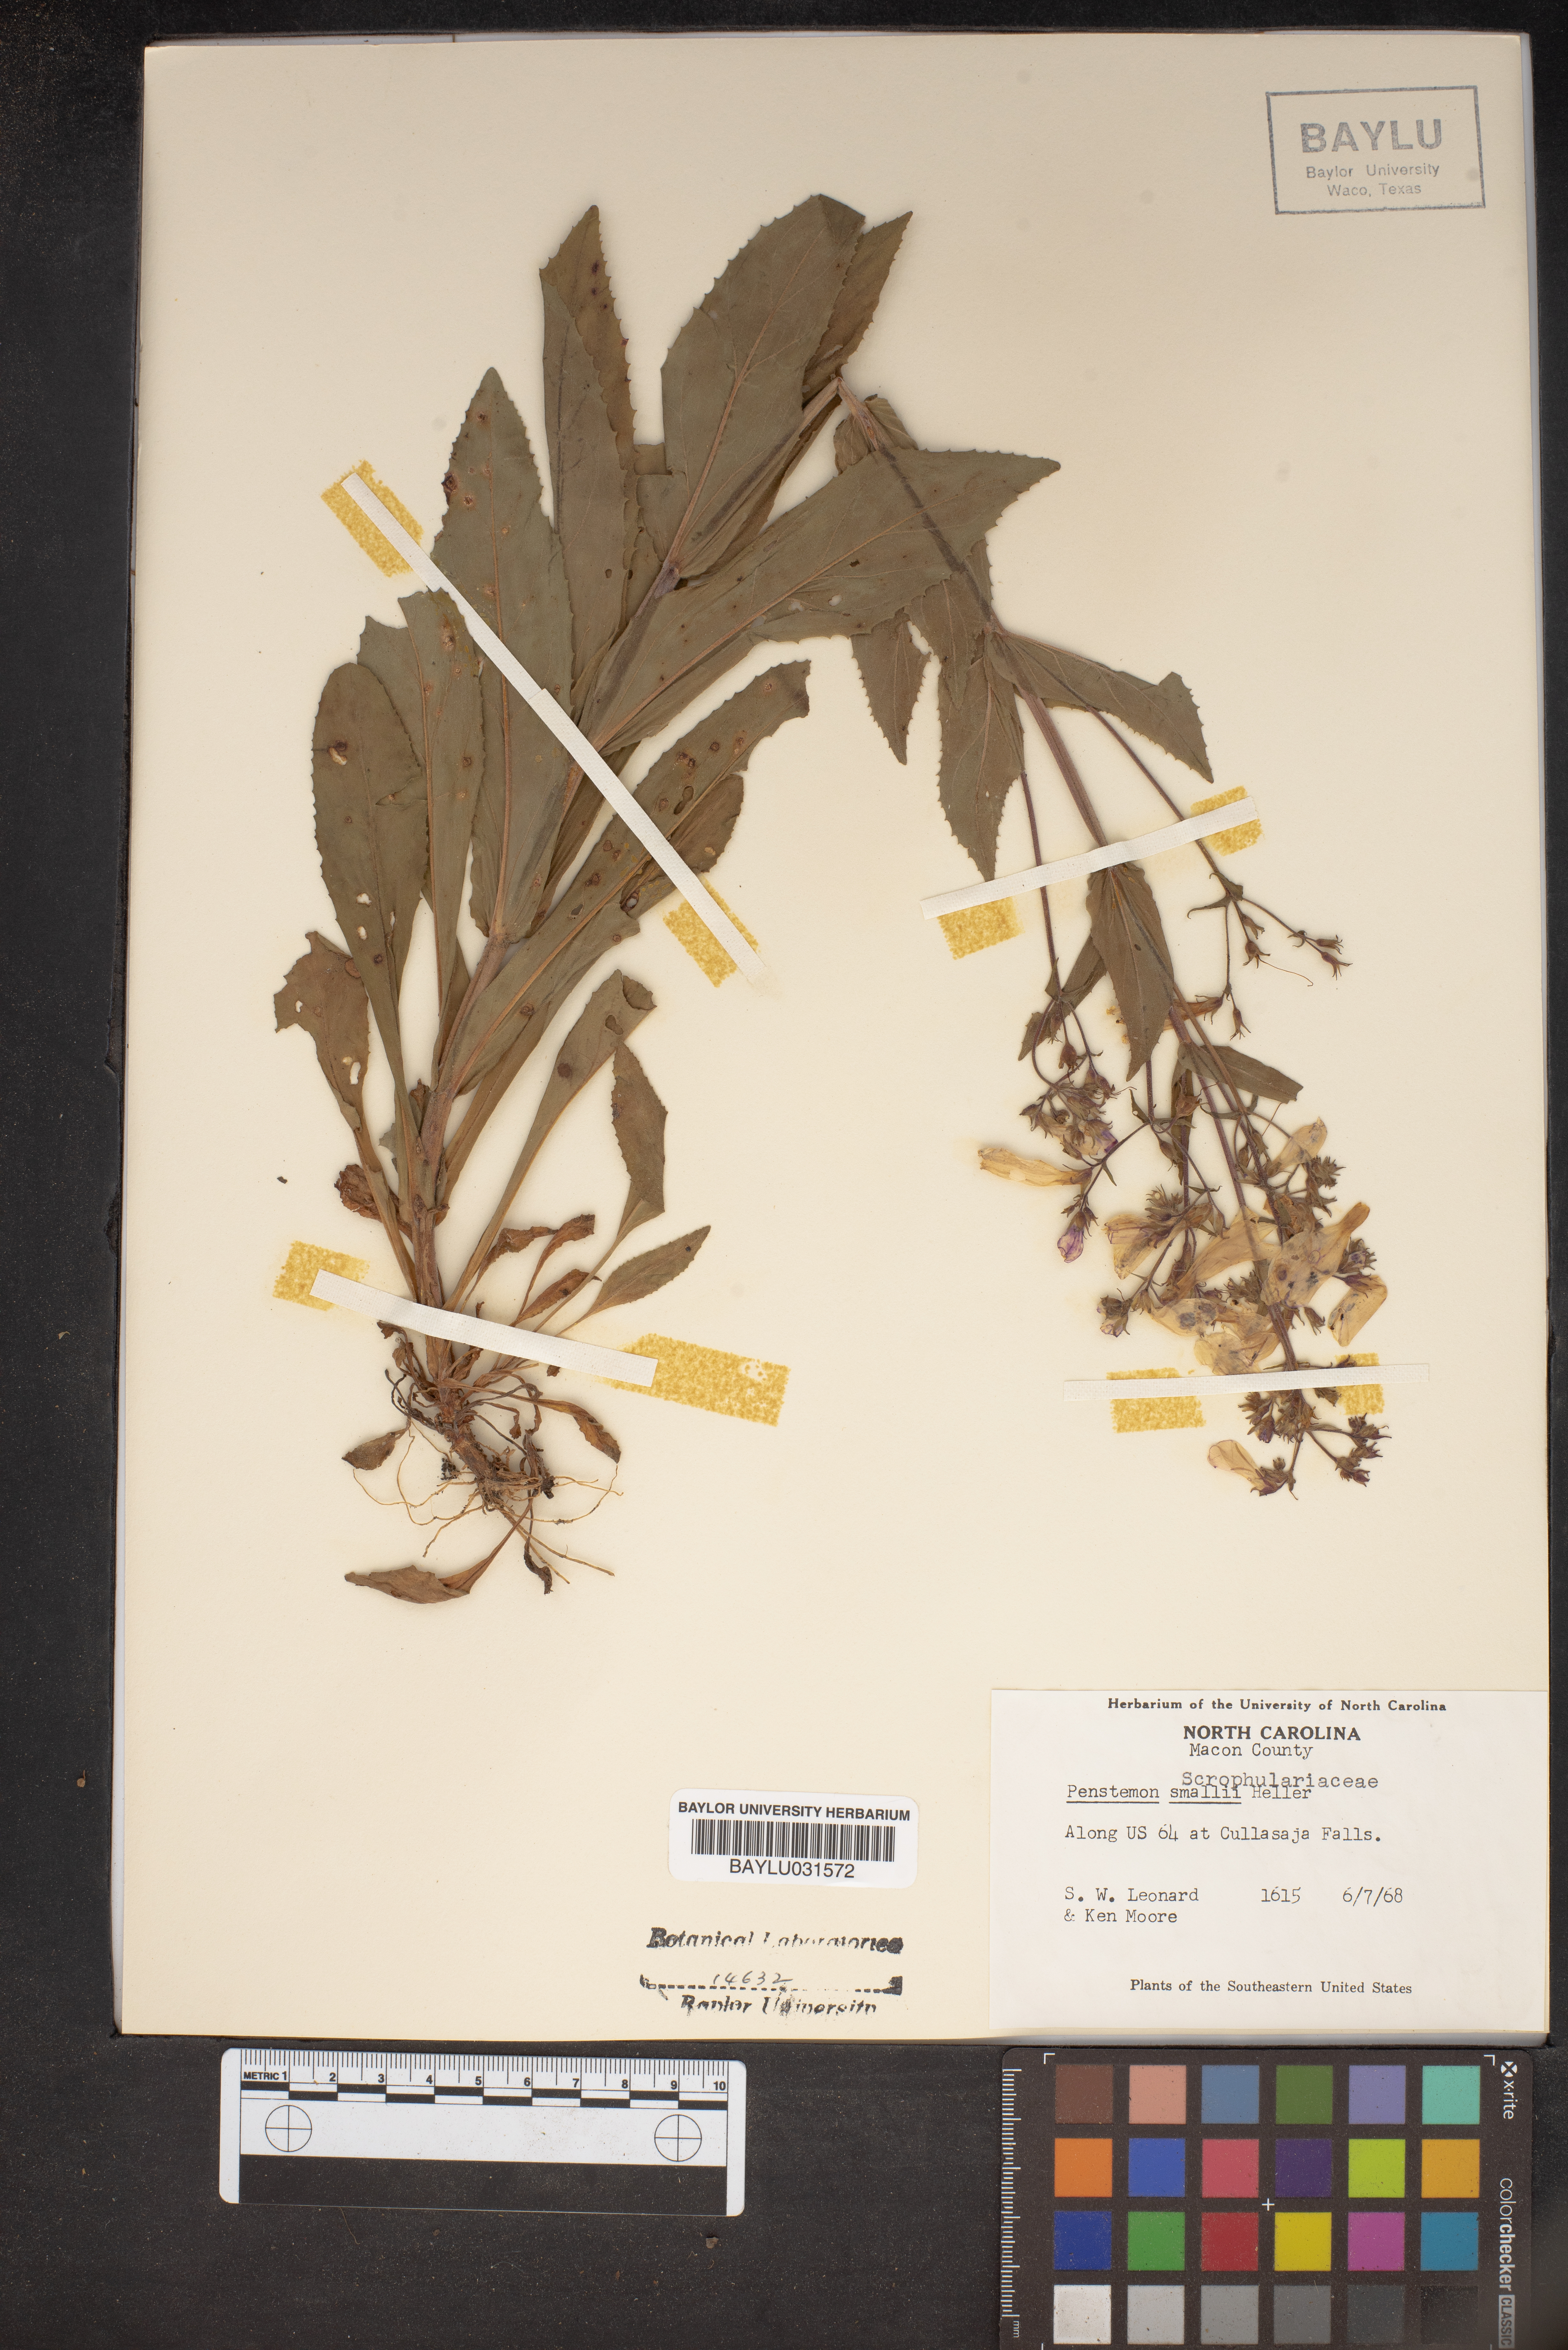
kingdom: Plantae
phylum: Tracheophyta
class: Magnoliopsida
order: Lamiales
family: Plantaginaceae
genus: Penstemon
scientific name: Penstemon smallii
